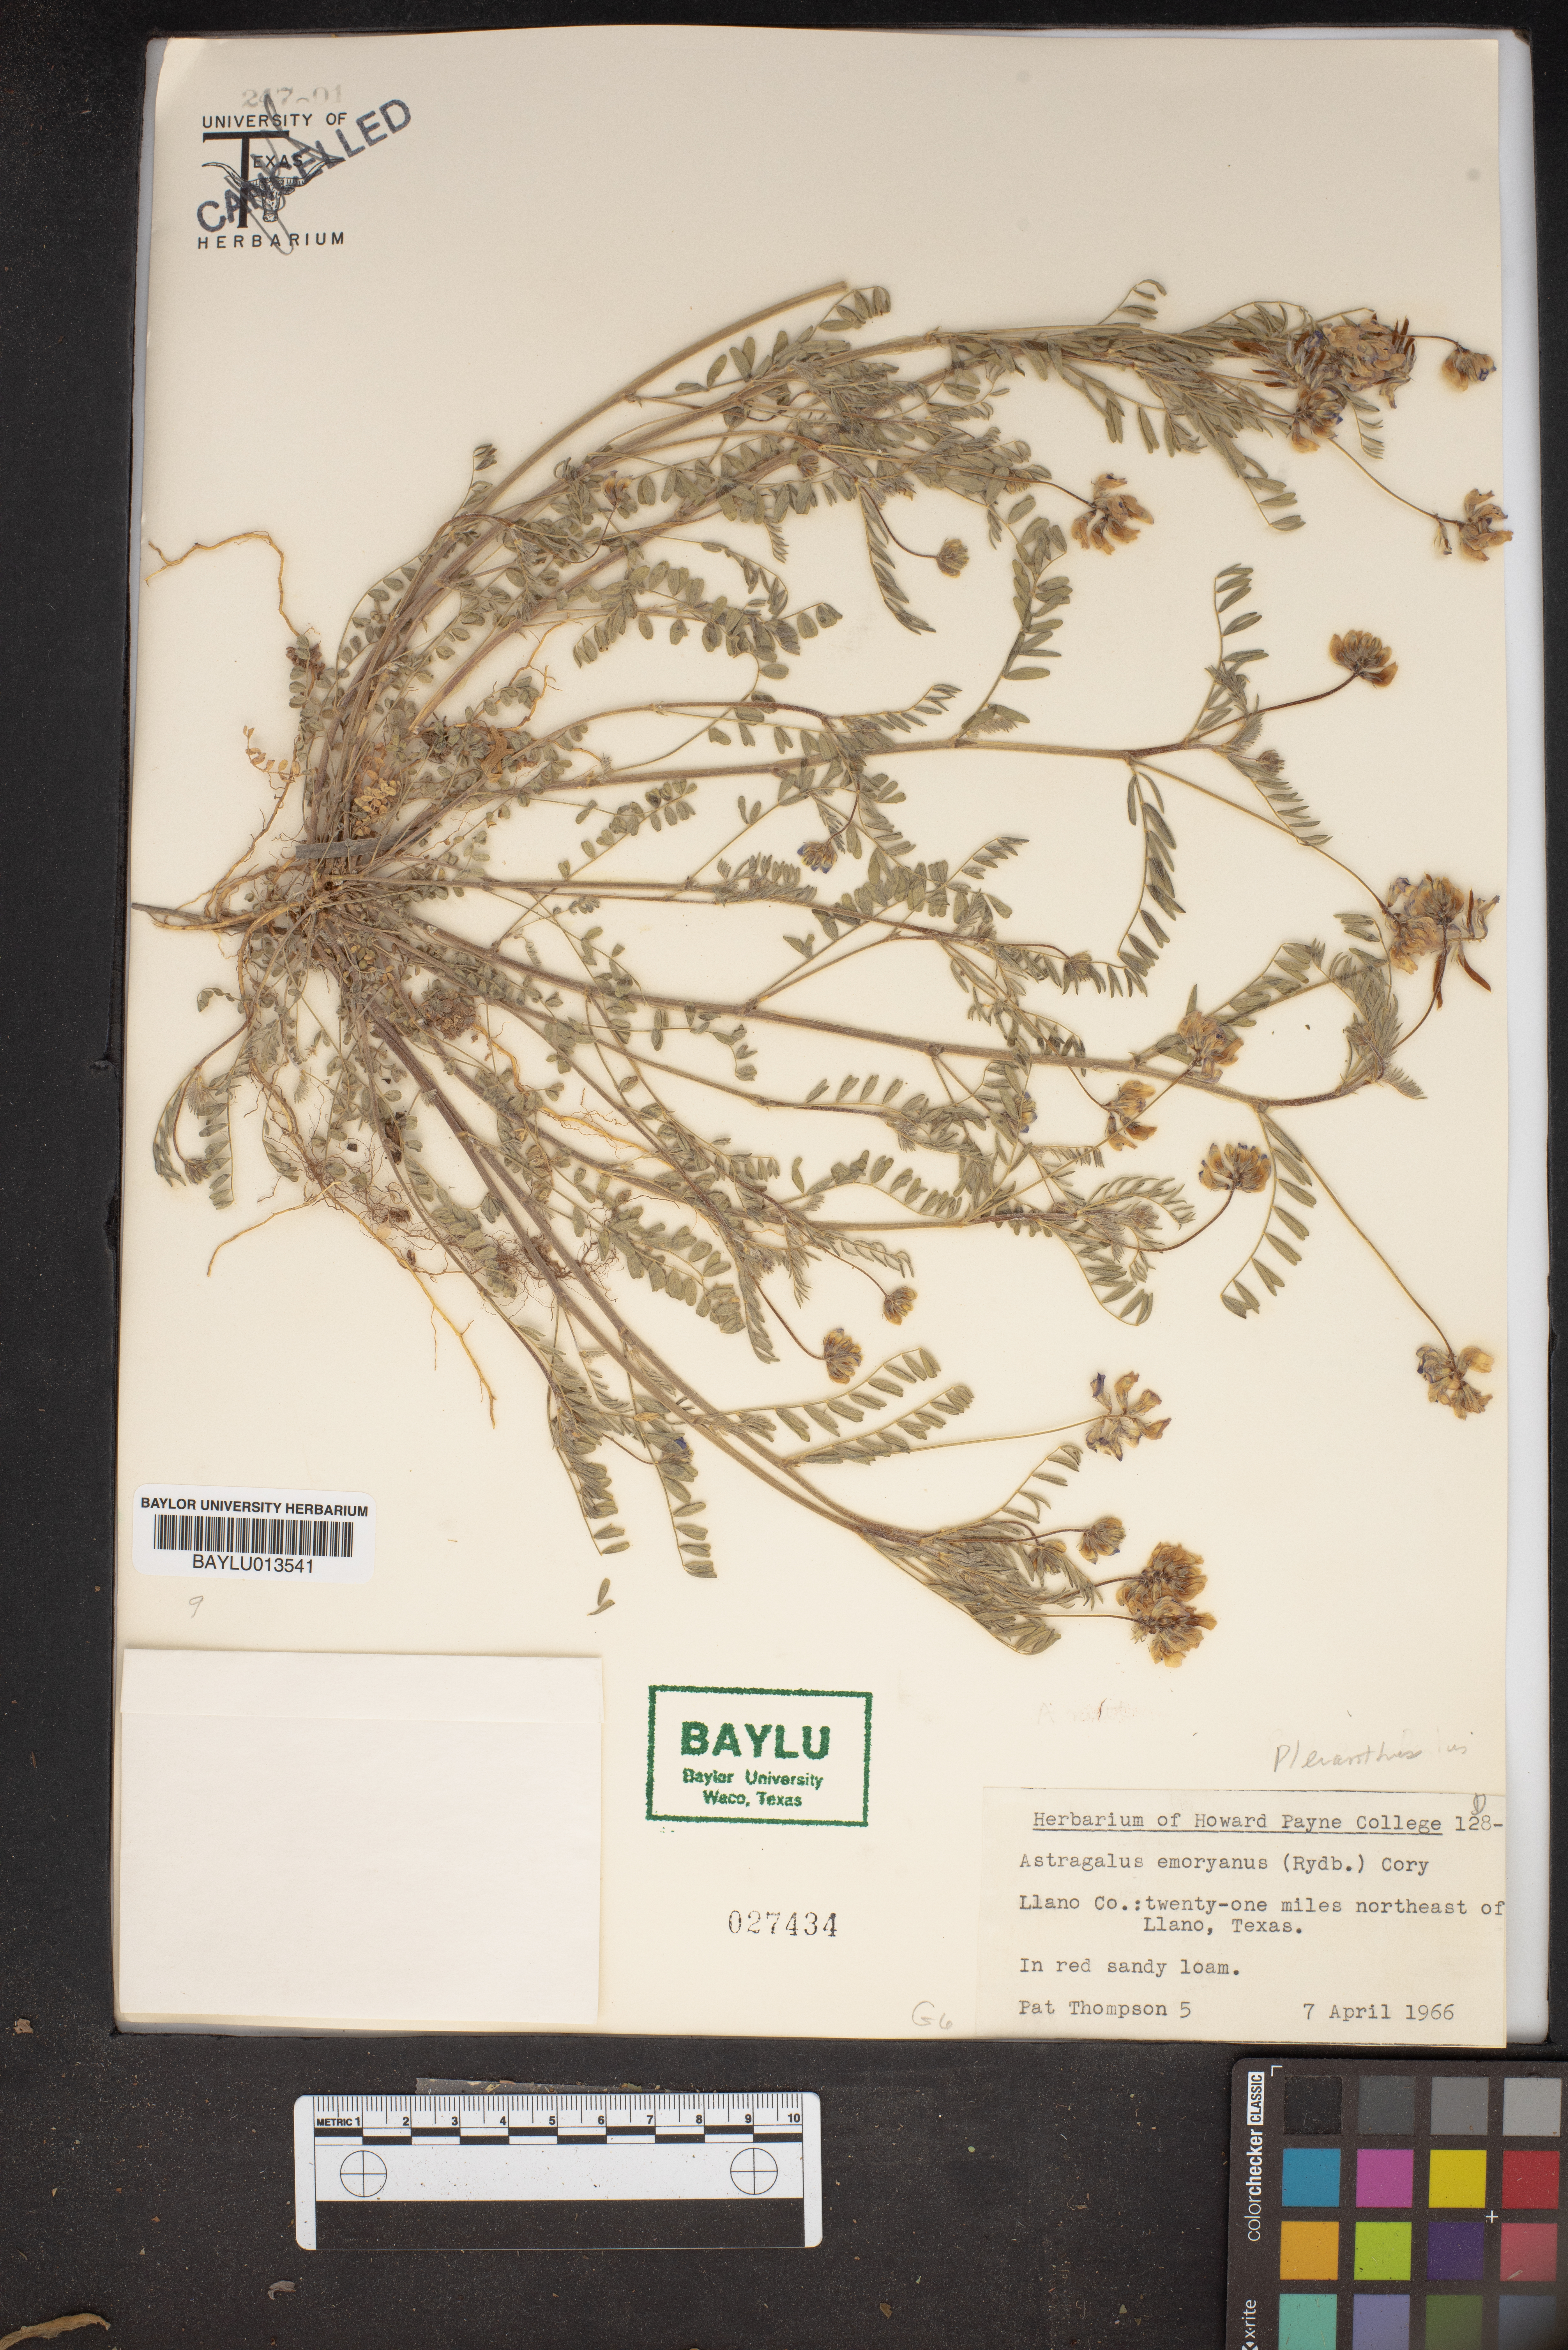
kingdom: Plantae
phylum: Tracheophyta
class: Magnoliopsida
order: Fabales
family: Fabaceae
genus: Astragalus
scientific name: Astragalus emoryanus
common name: Emory's milk-vetch
